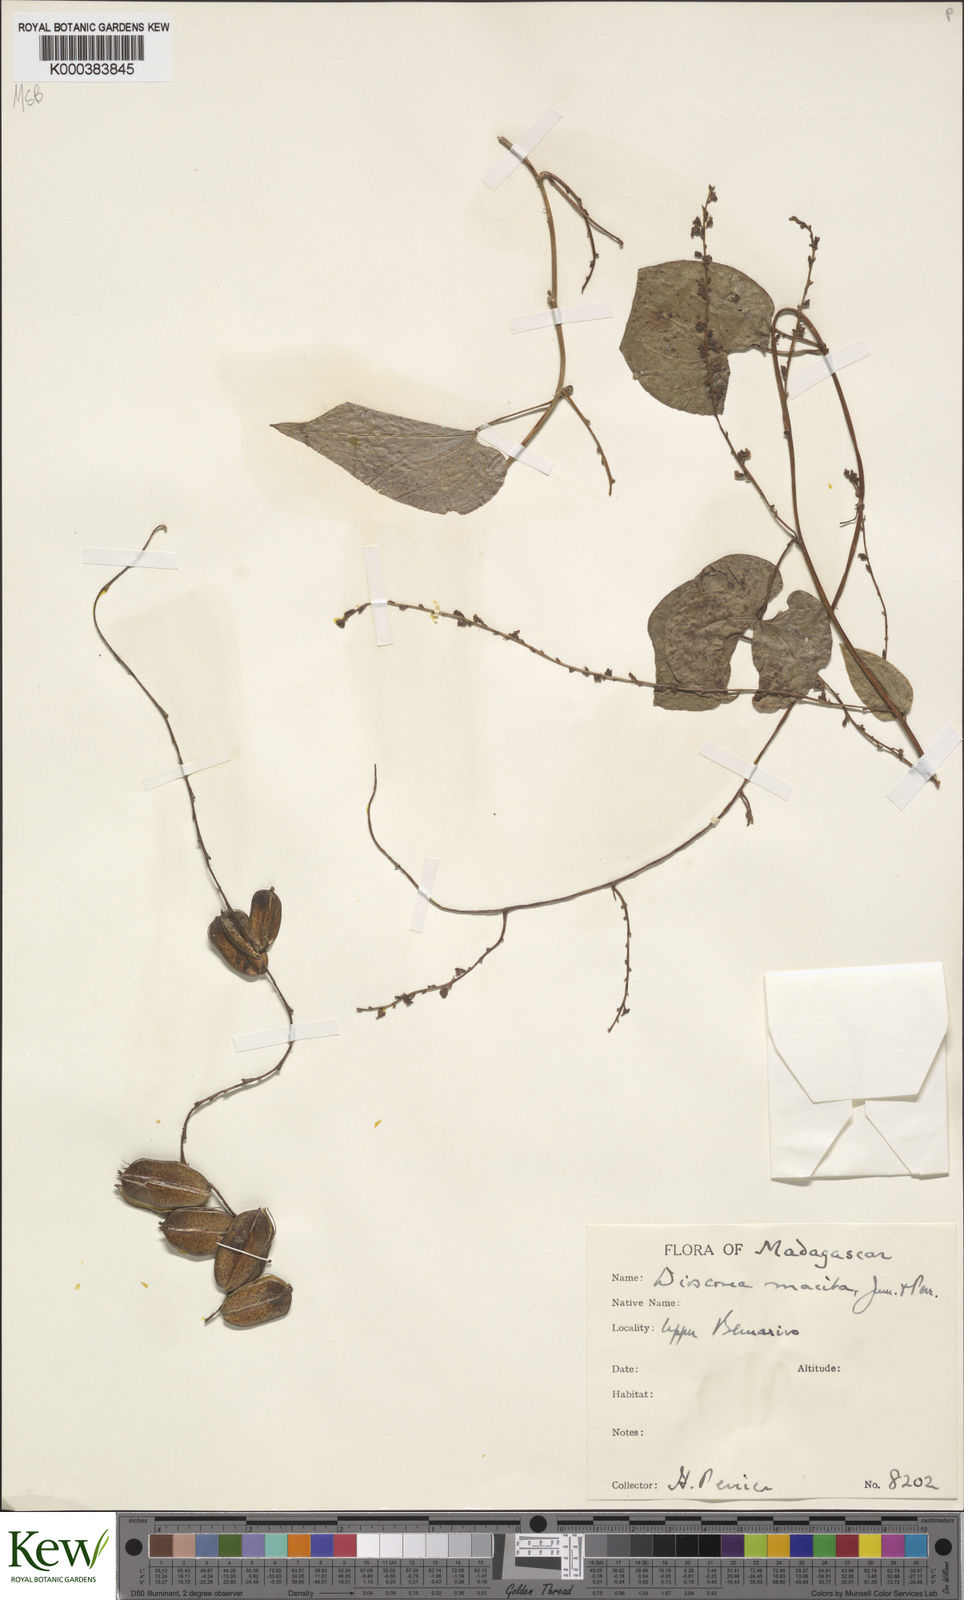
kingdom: Plantae
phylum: Tracheophyta
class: Liliopsida
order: Dioscoreales
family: Dioscoreaceae
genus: Dioscorea
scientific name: Dioscorea
